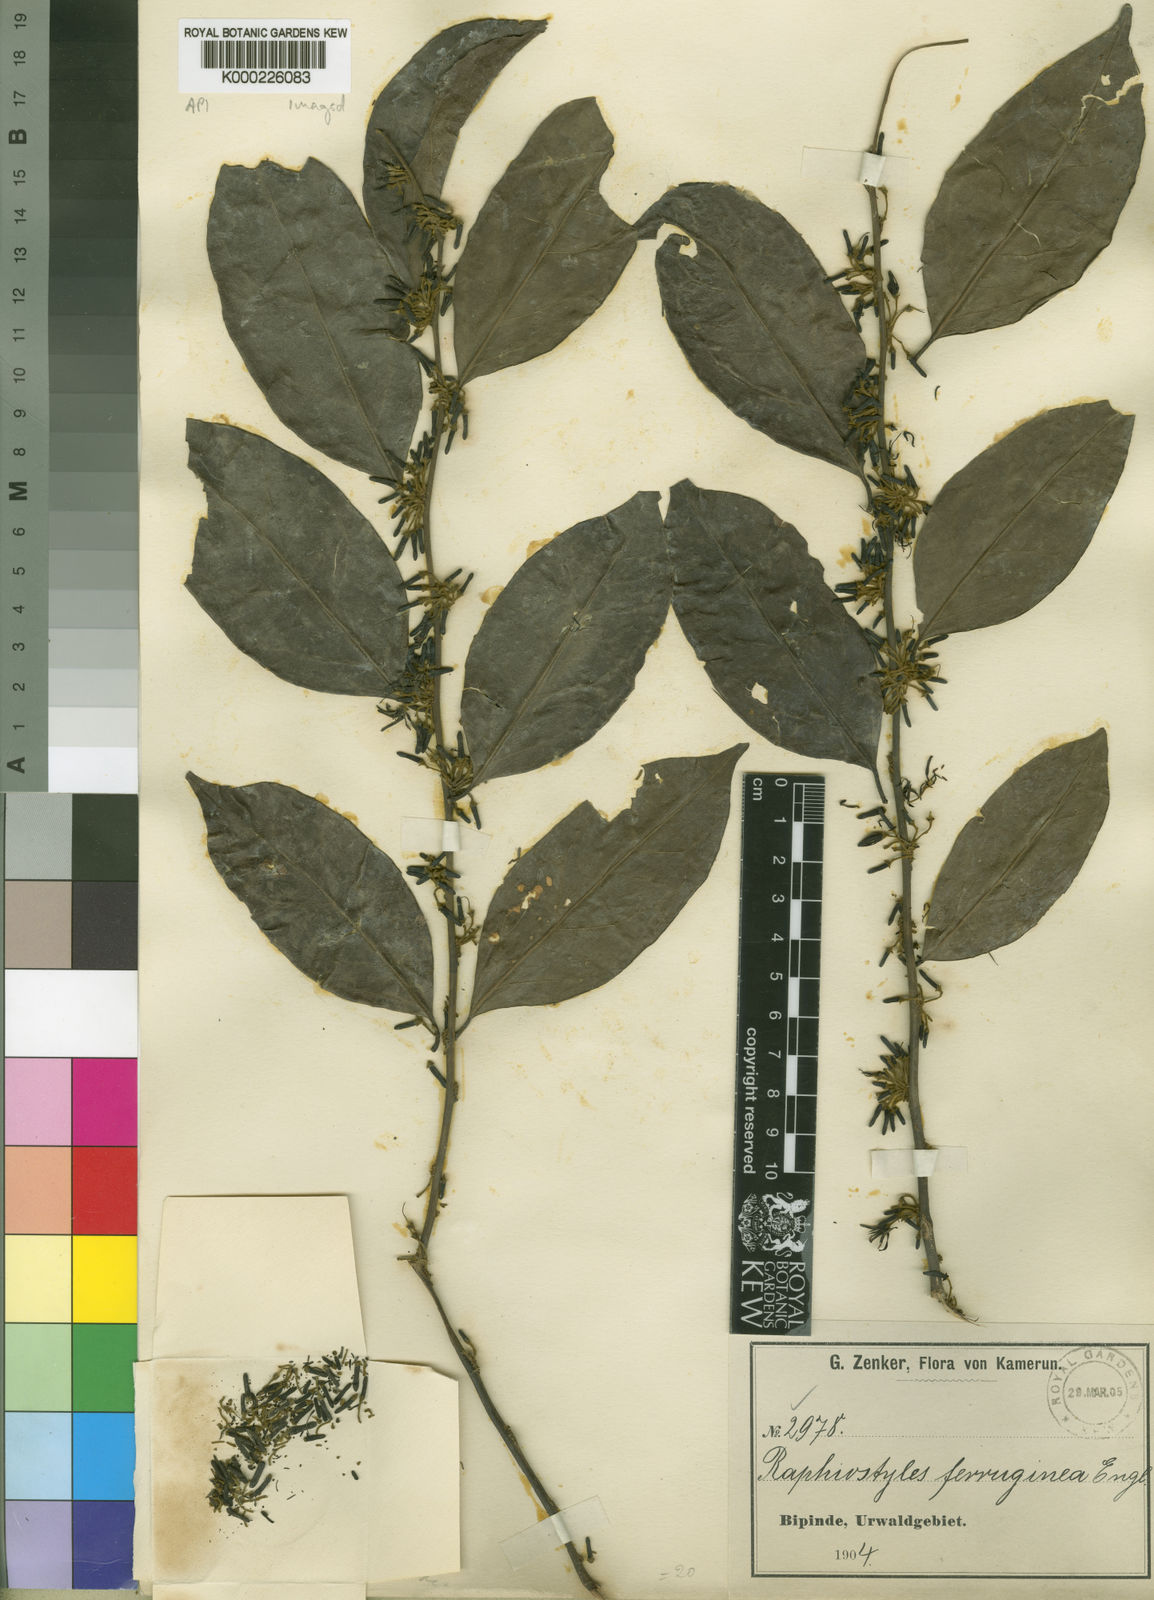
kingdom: Plantae
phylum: Tracheophyta
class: Magnoliopsida
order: Metteniusales
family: Metteniusaceae
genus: Rhaphiostylis
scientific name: Rhaphiostylis ferruginea
